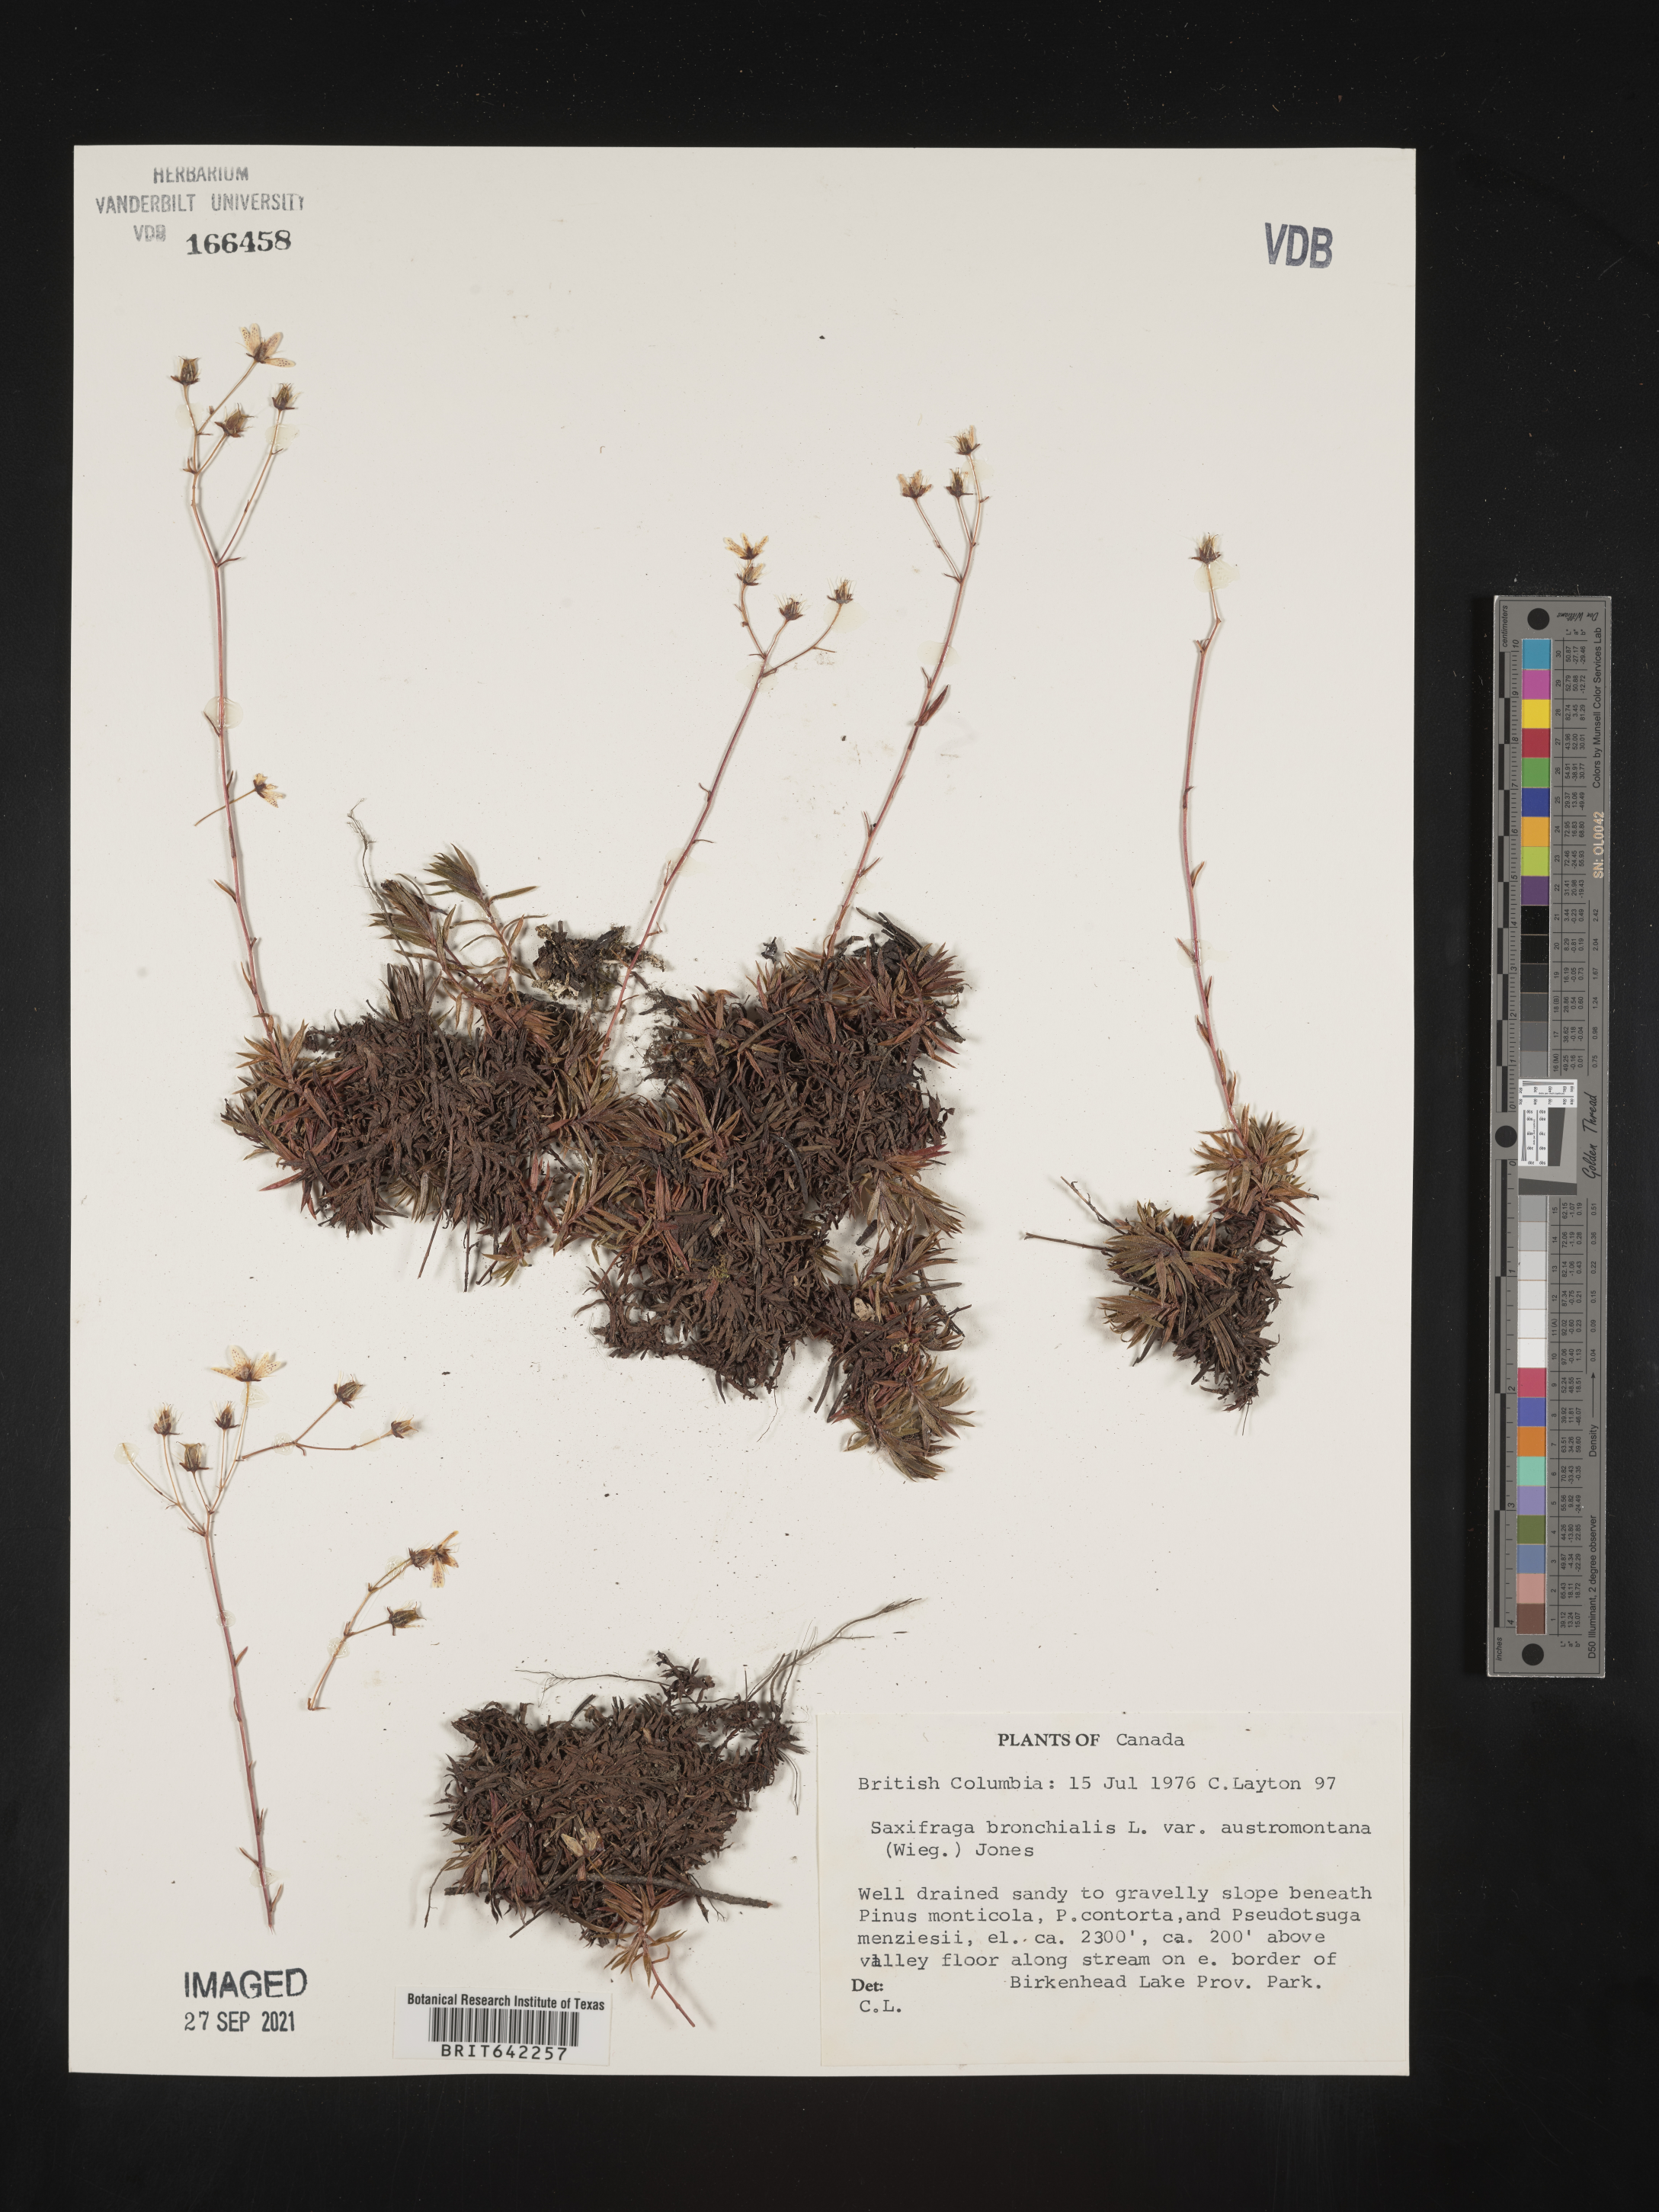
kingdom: Plantae
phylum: Tracheophyta
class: Magnoliopsida
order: Saxifragales
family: Saxifragaceae
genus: Saxifraga
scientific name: Saxifraga
